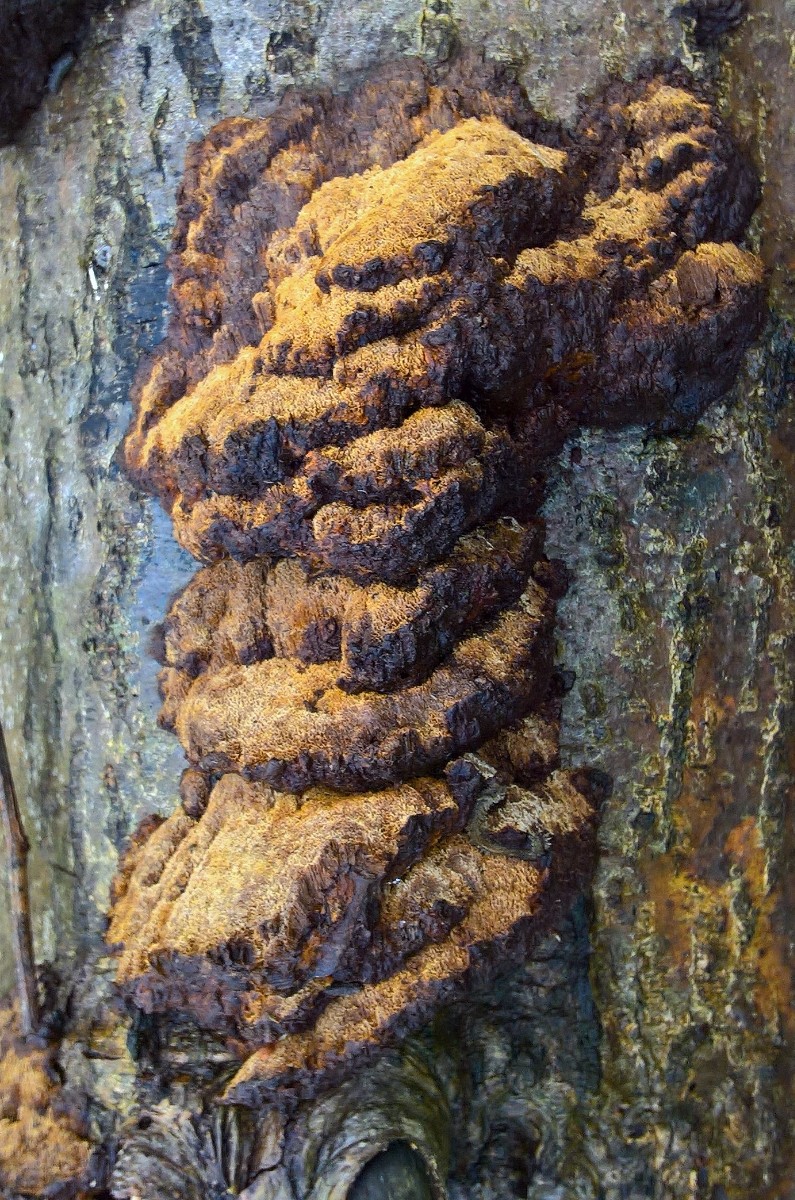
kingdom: Fungi
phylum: Basidiomycota
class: Agaricomycetes
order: Hymenochaetales
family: Hymenochaetaceae
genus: Xanthoporia
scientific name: Xanthoporia radiata
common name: elle-spejlporesvamp
